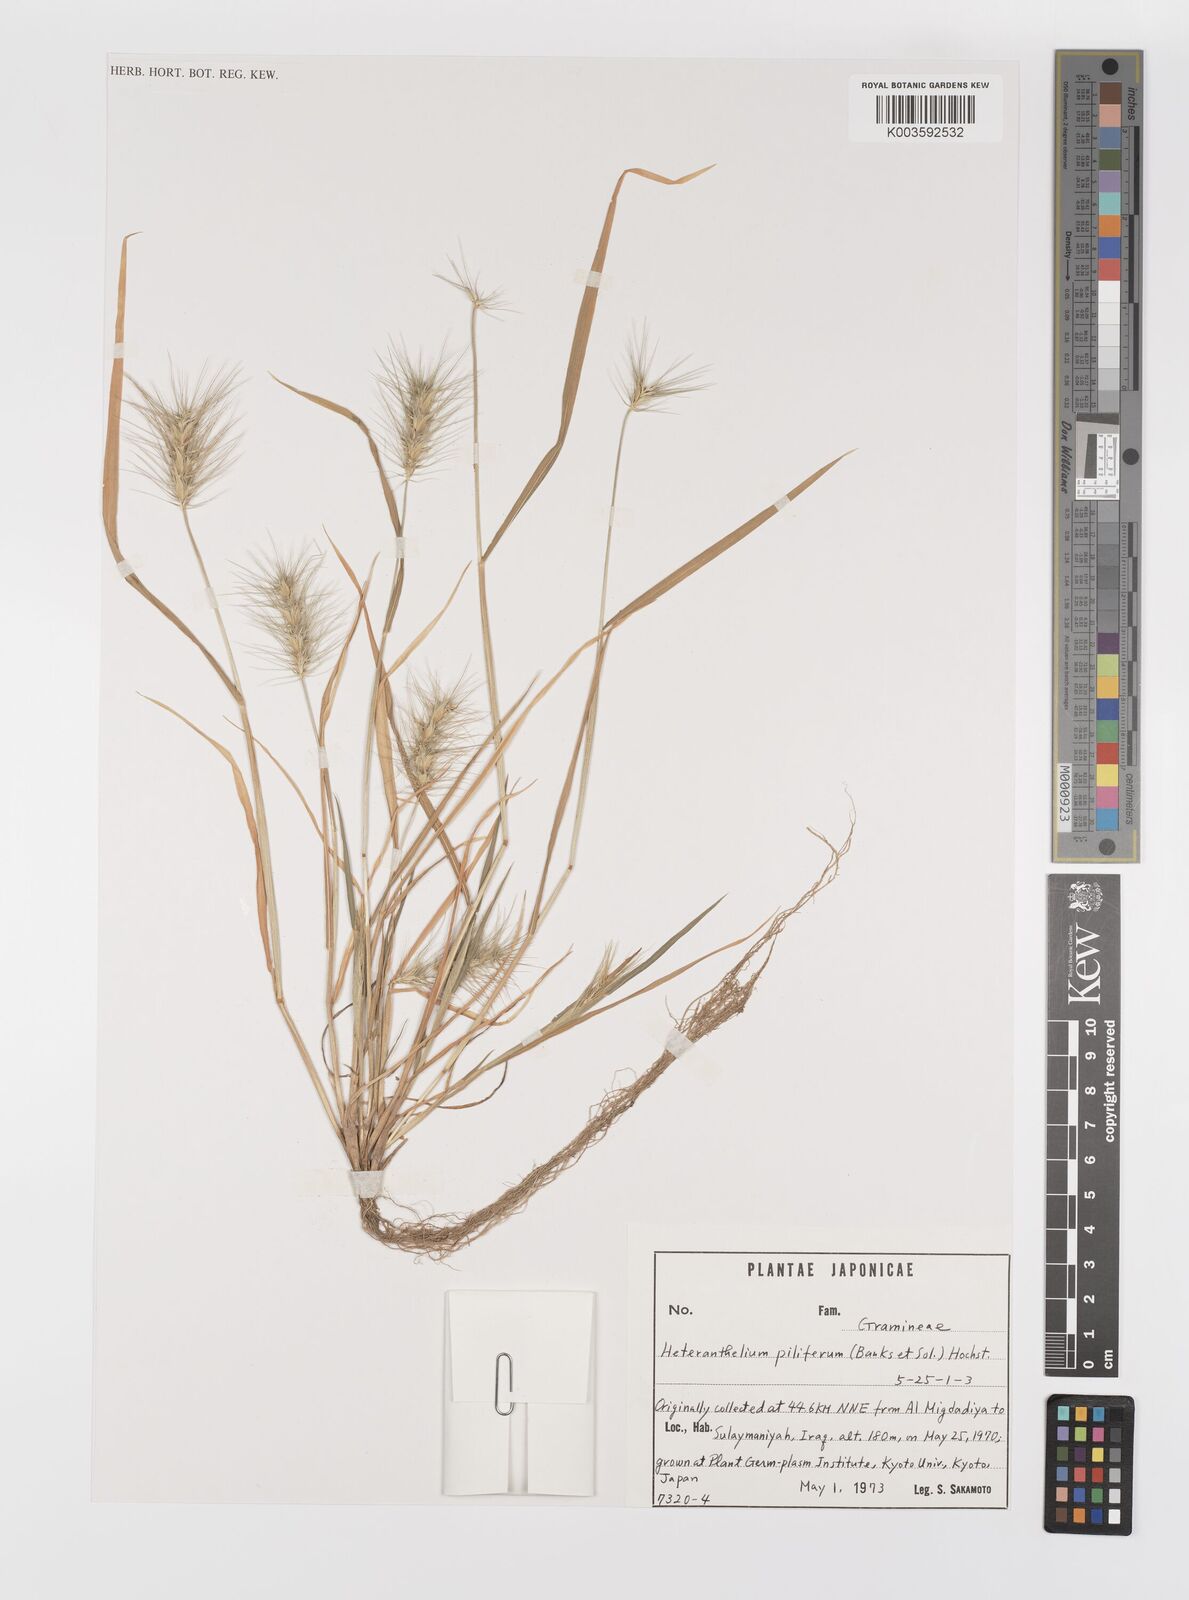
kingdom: Plantae
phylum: Tracheophyta
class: Liliopsida
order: Poales
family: Poaceae
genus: Heteranthelium
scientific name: Heteranthelium piliferum
